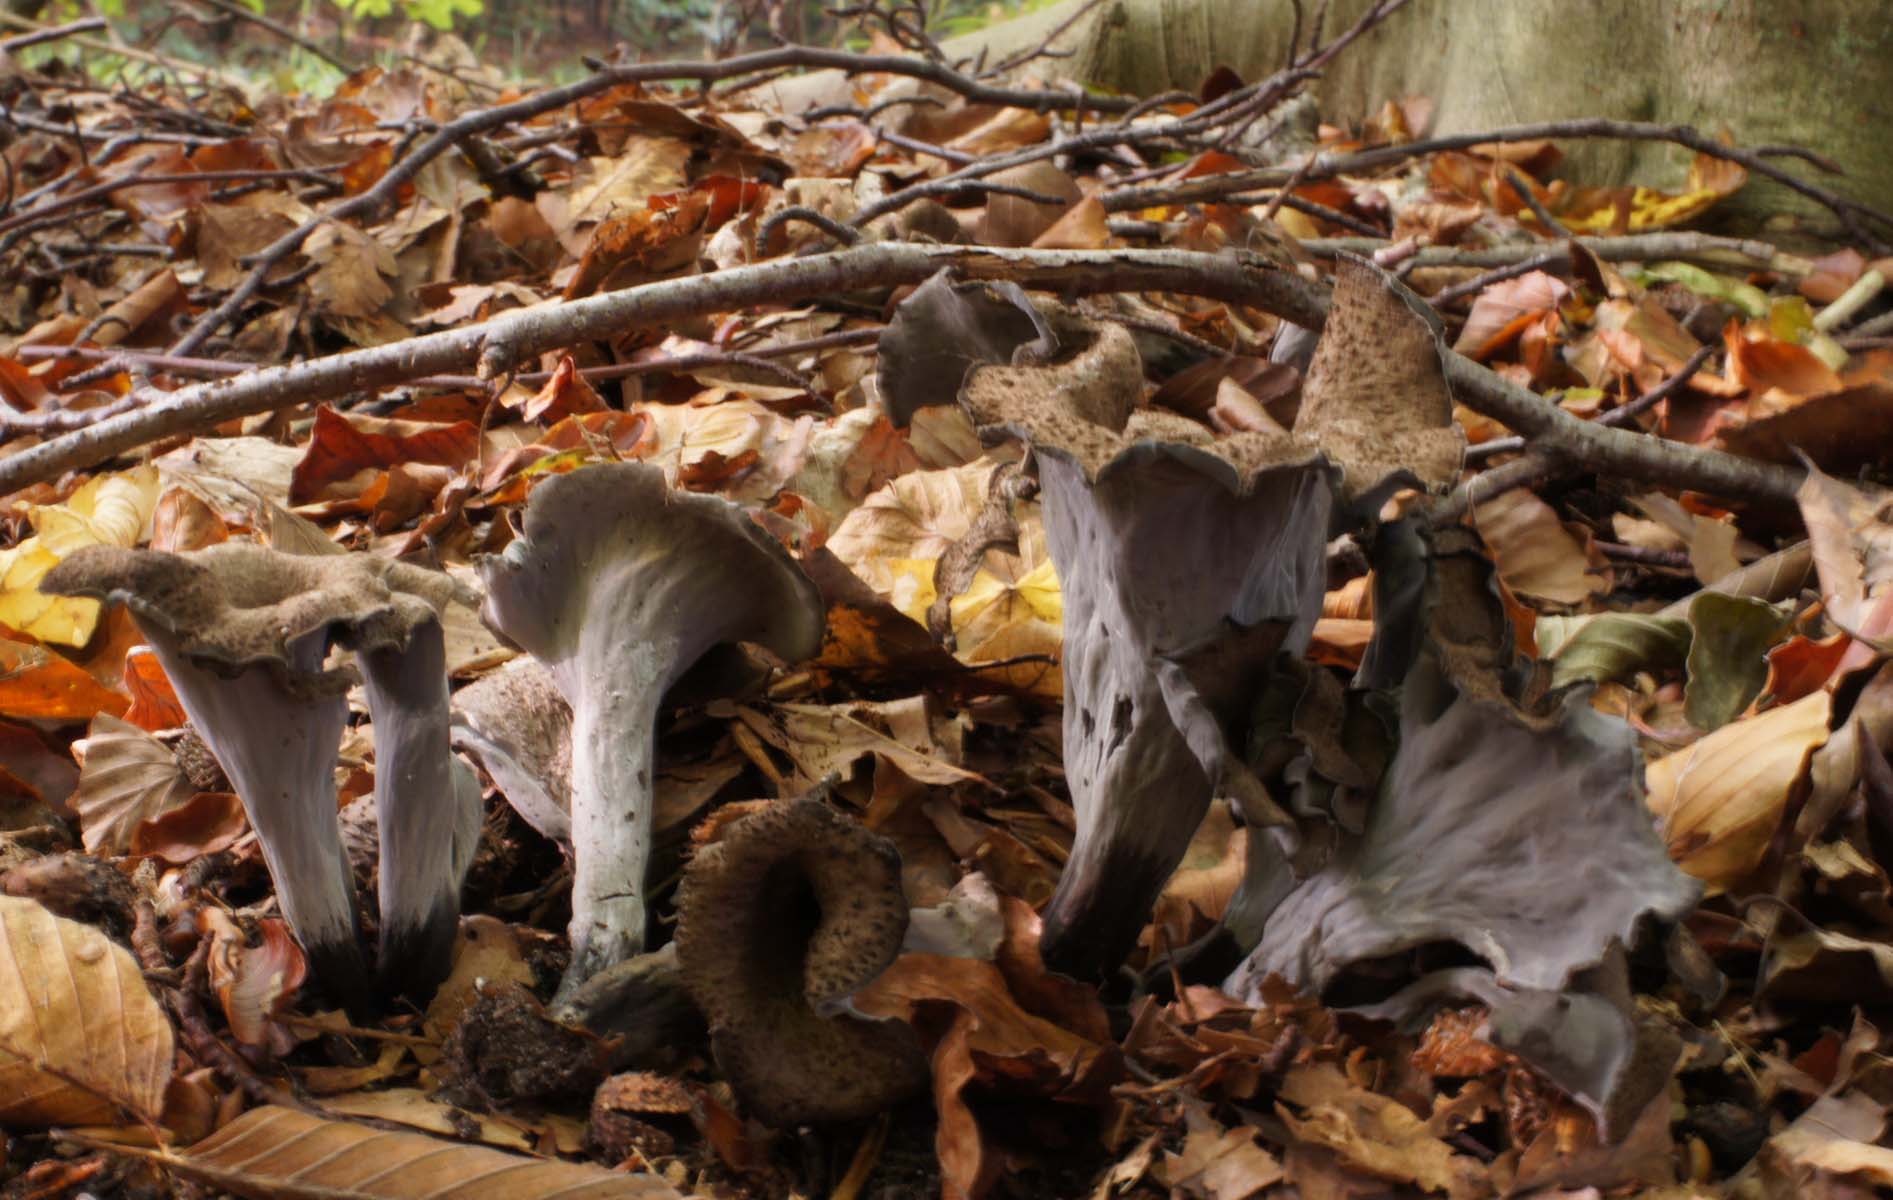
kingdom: Fungi
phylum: Basidiomycota
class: Agaricomycetes
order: Cantharellales
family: Hydnaceae
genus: Craterellus
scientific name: Craterellus cornucopioides
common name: trompetsvamp
